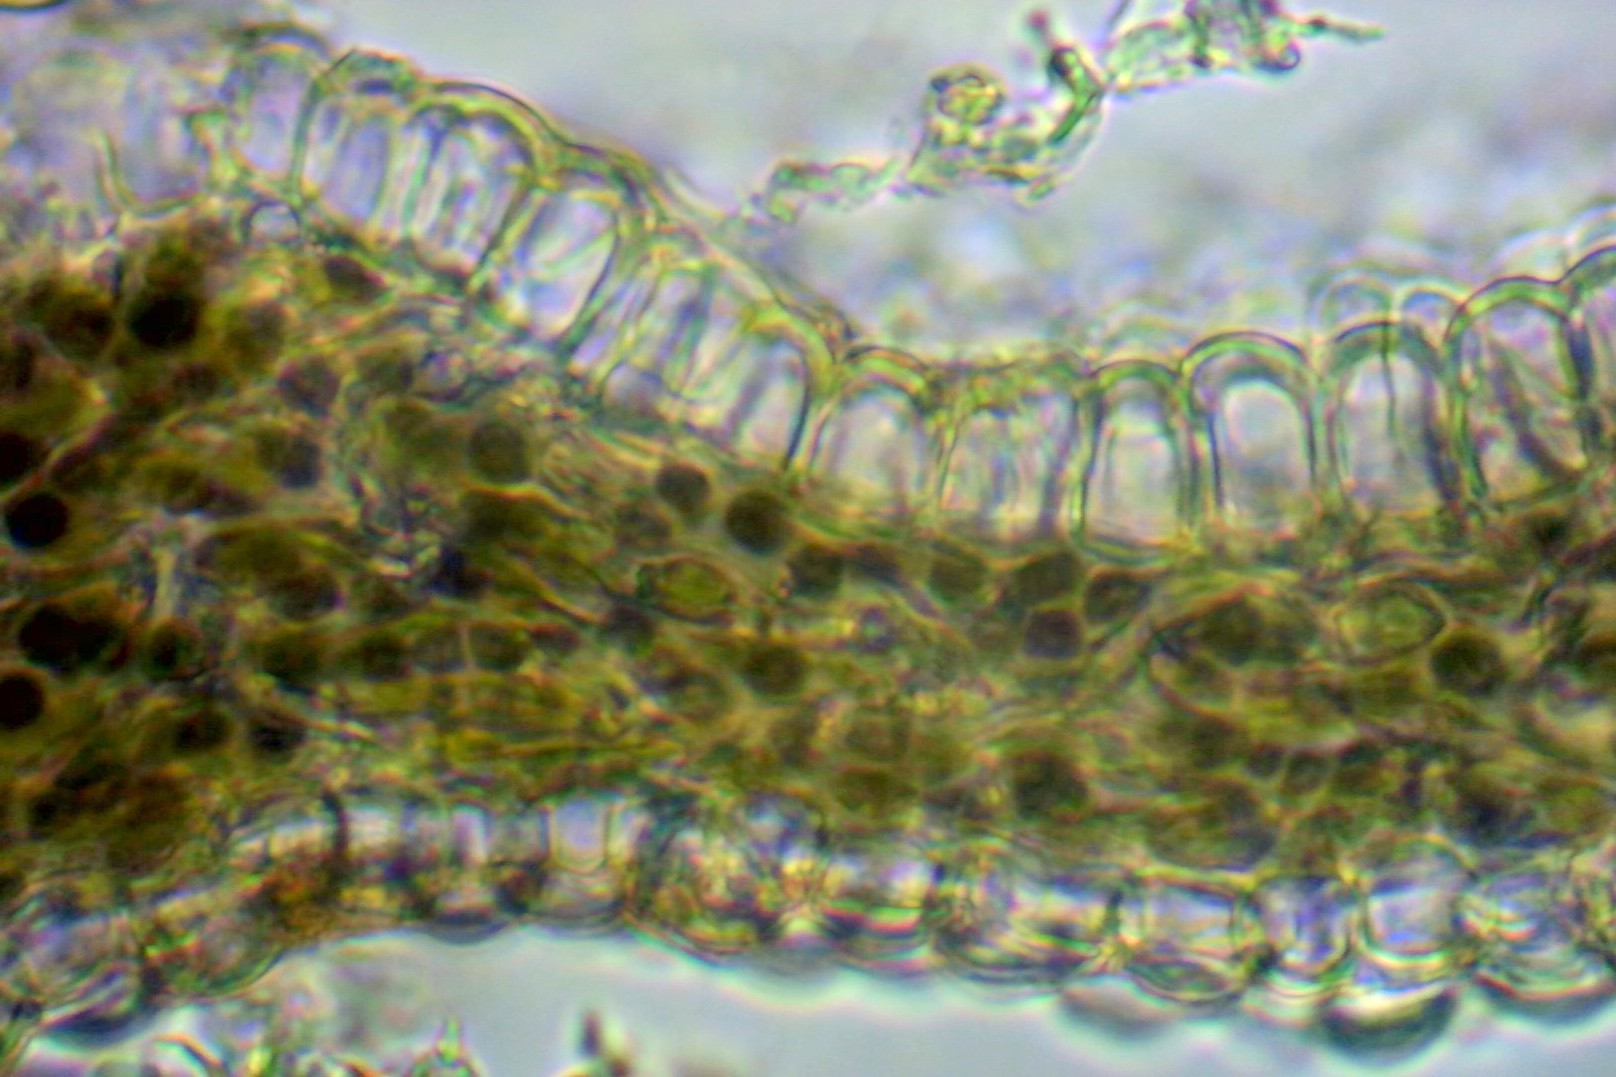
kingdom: Fungi
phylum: Ascomycota
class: Lecanoromycetes
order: Peltigerales
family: Collemataceae
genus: Scytinium
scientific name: Scytinium lichenoides
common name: frynset hindelav
